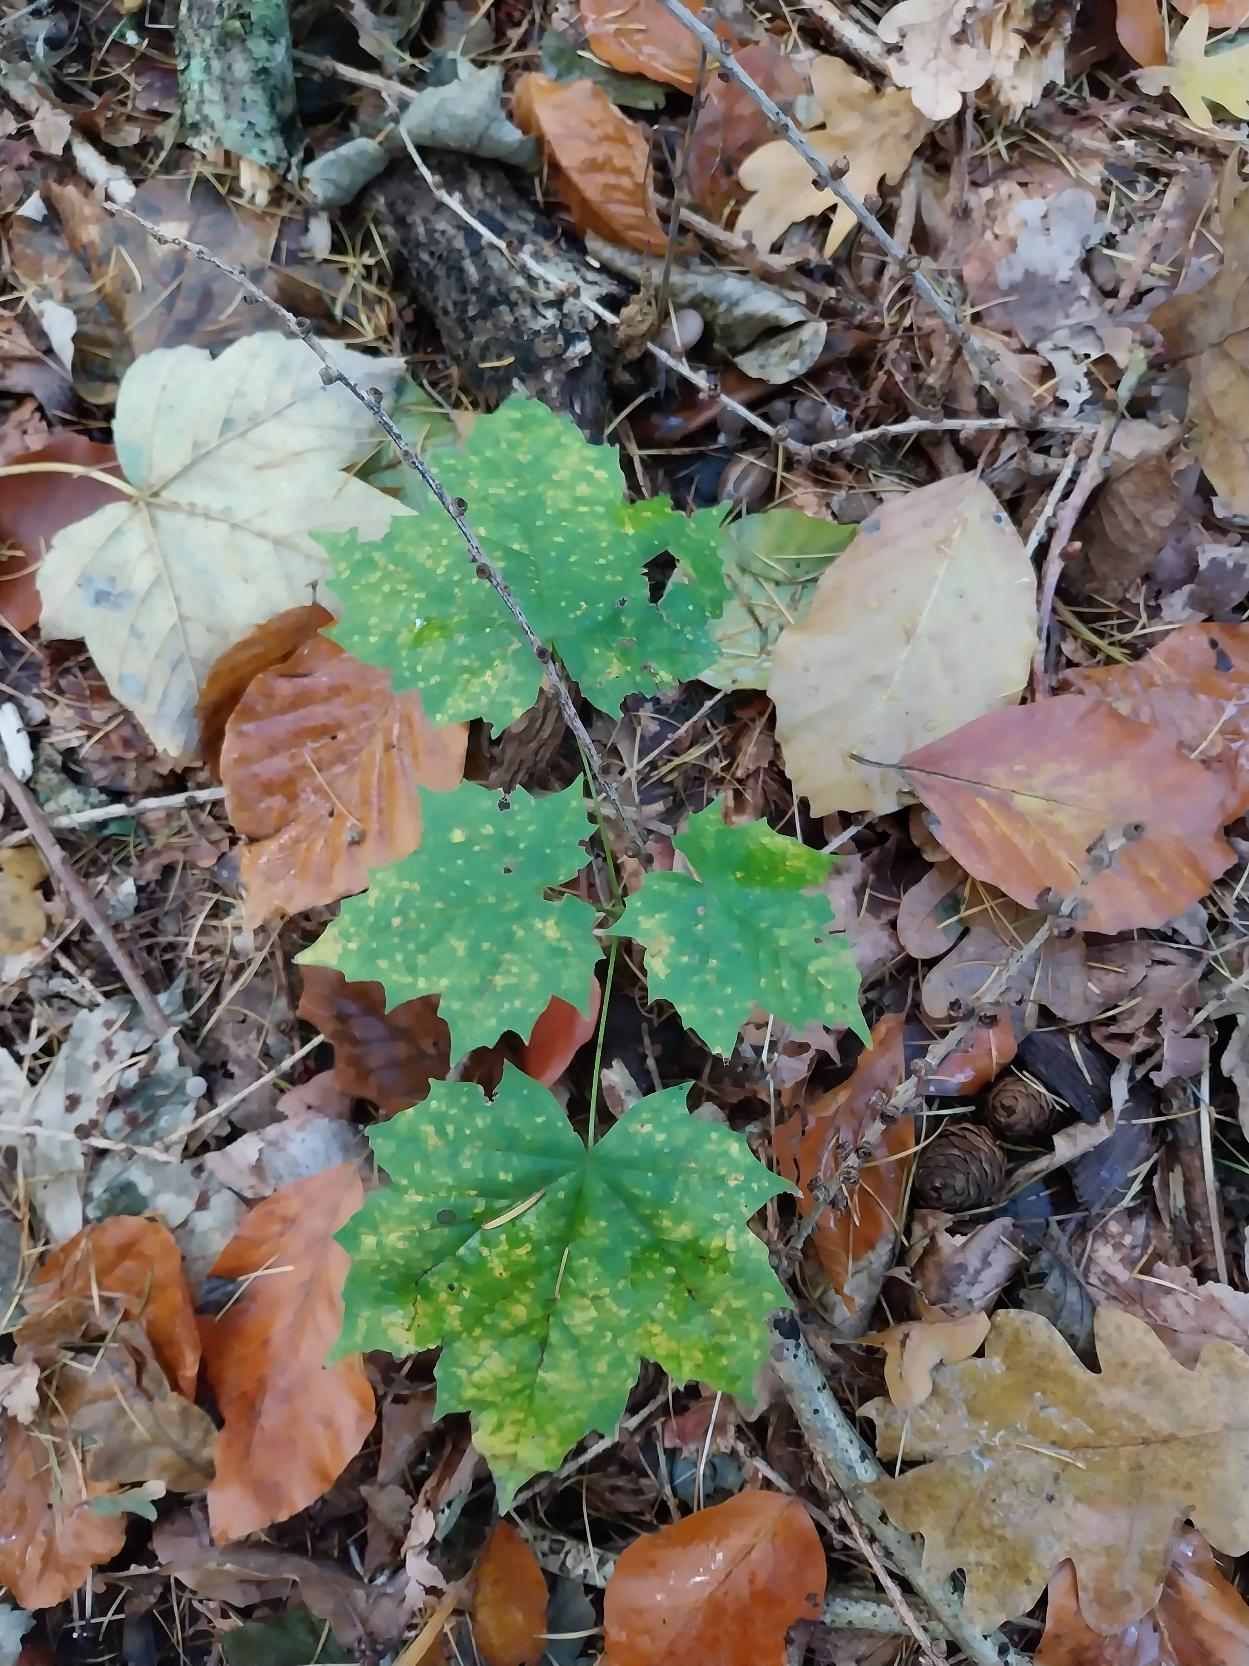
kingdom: Plantae
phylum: Tracheophyta
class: Magnoliopsida
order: Sapindales
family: Sapindaceae
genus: Acer
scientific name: Acer platanoides
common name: Spids-løn
